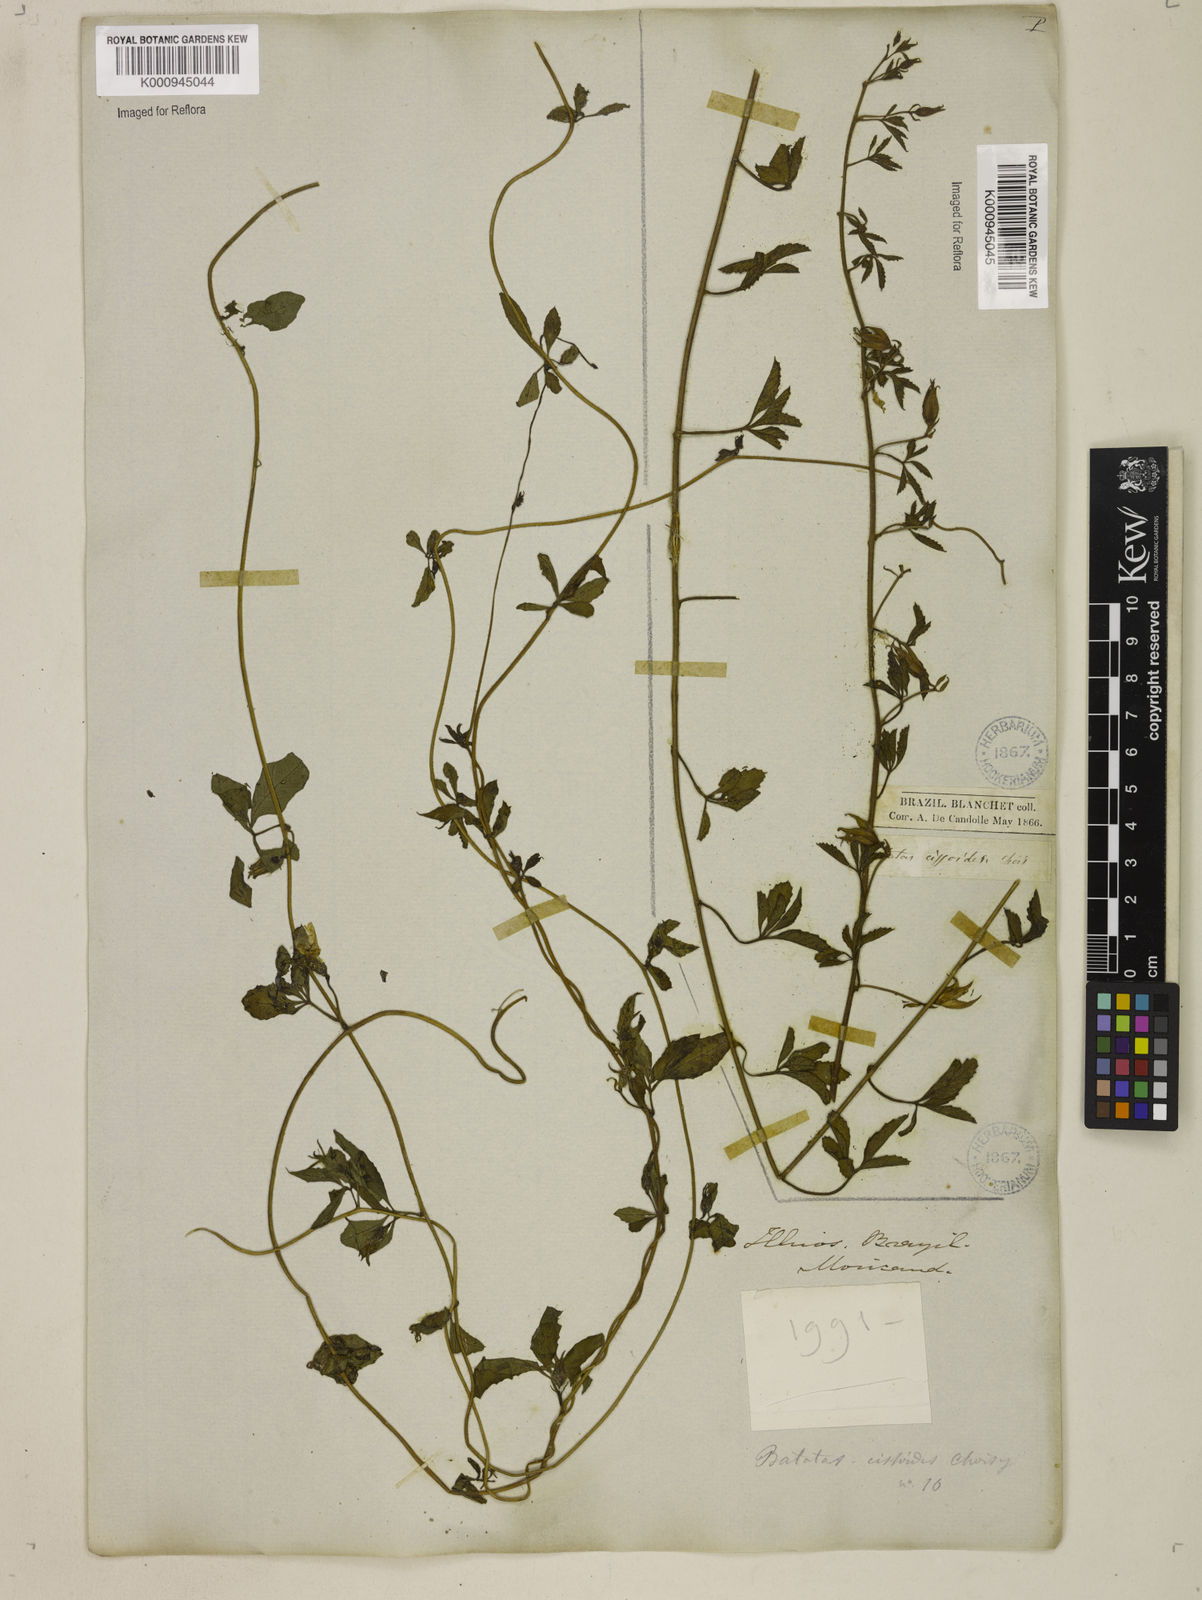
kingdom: Plantae
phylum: Tracheophyta
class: Magnoliopsida
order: Solanales
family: Convolvulaceae
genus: Distimake
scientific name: Distimake cissoides
